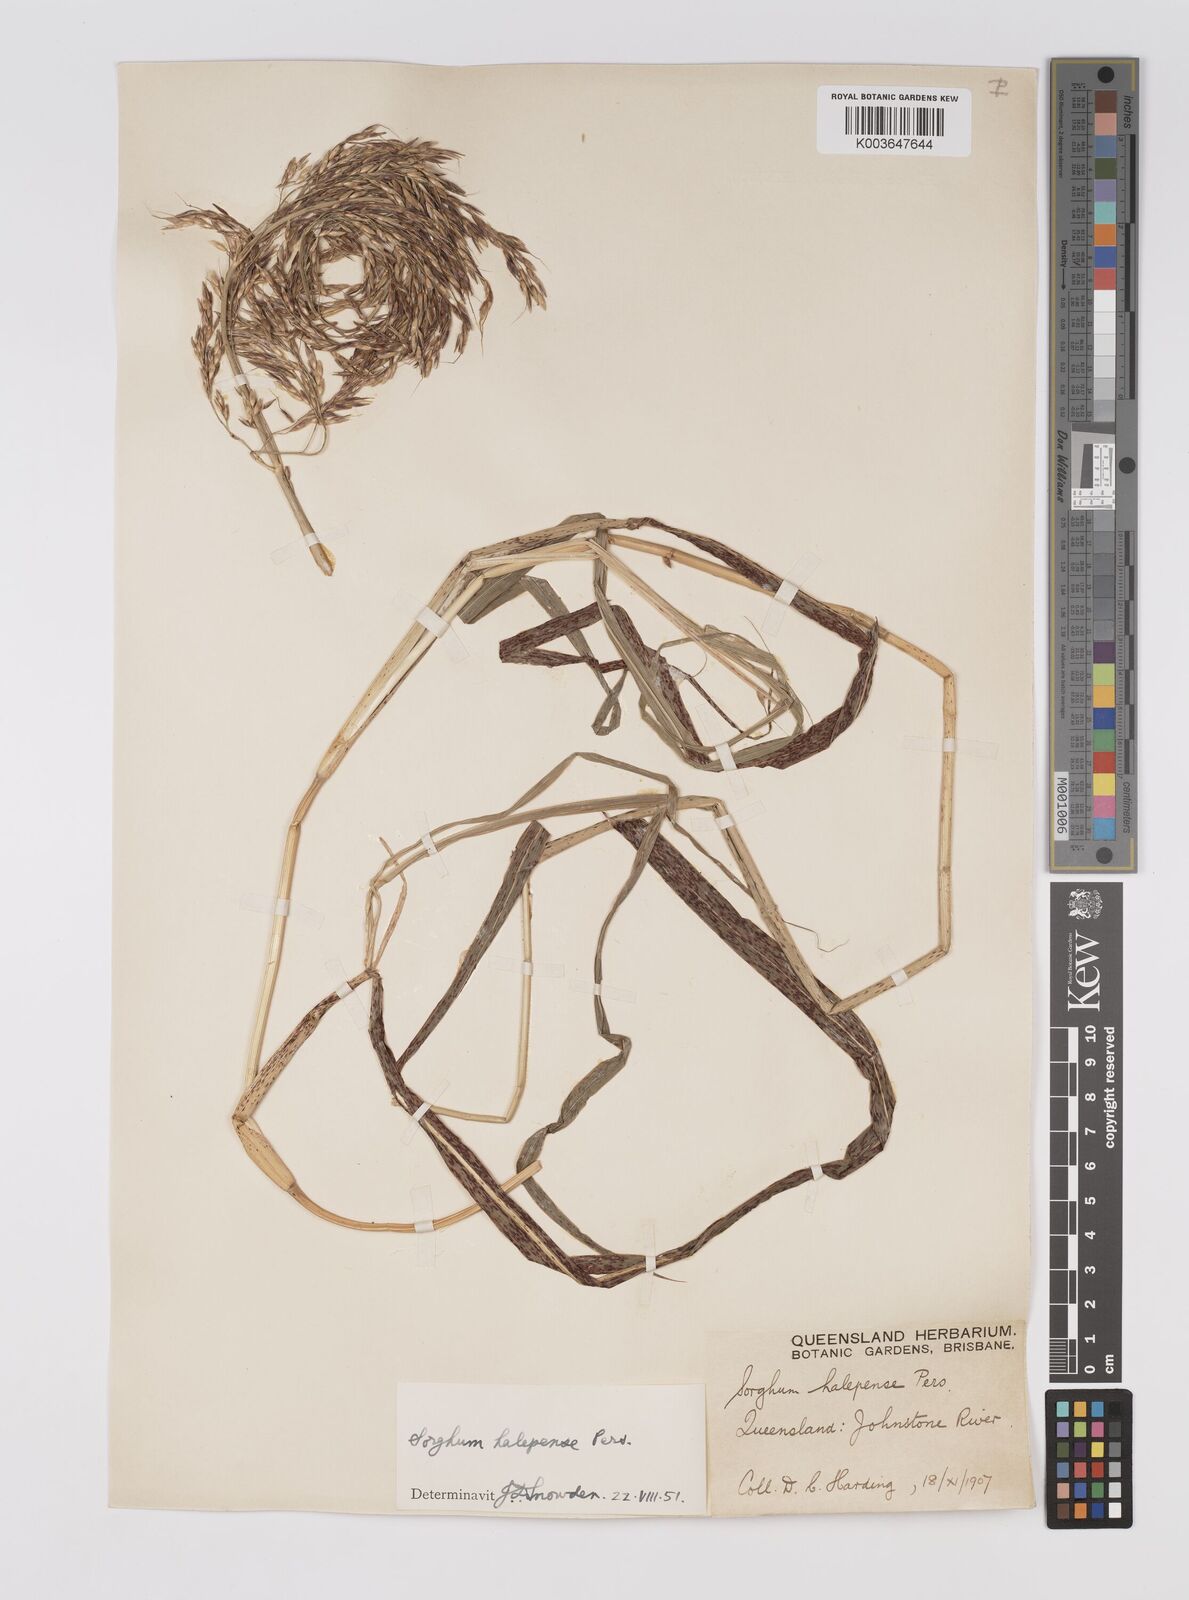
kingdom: Plantae
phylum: Tracheophyta
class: Liliopsida
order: Poales
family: Poaceae
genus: Sorghum
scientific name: Sorghum halepense
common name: Johnson-grass
